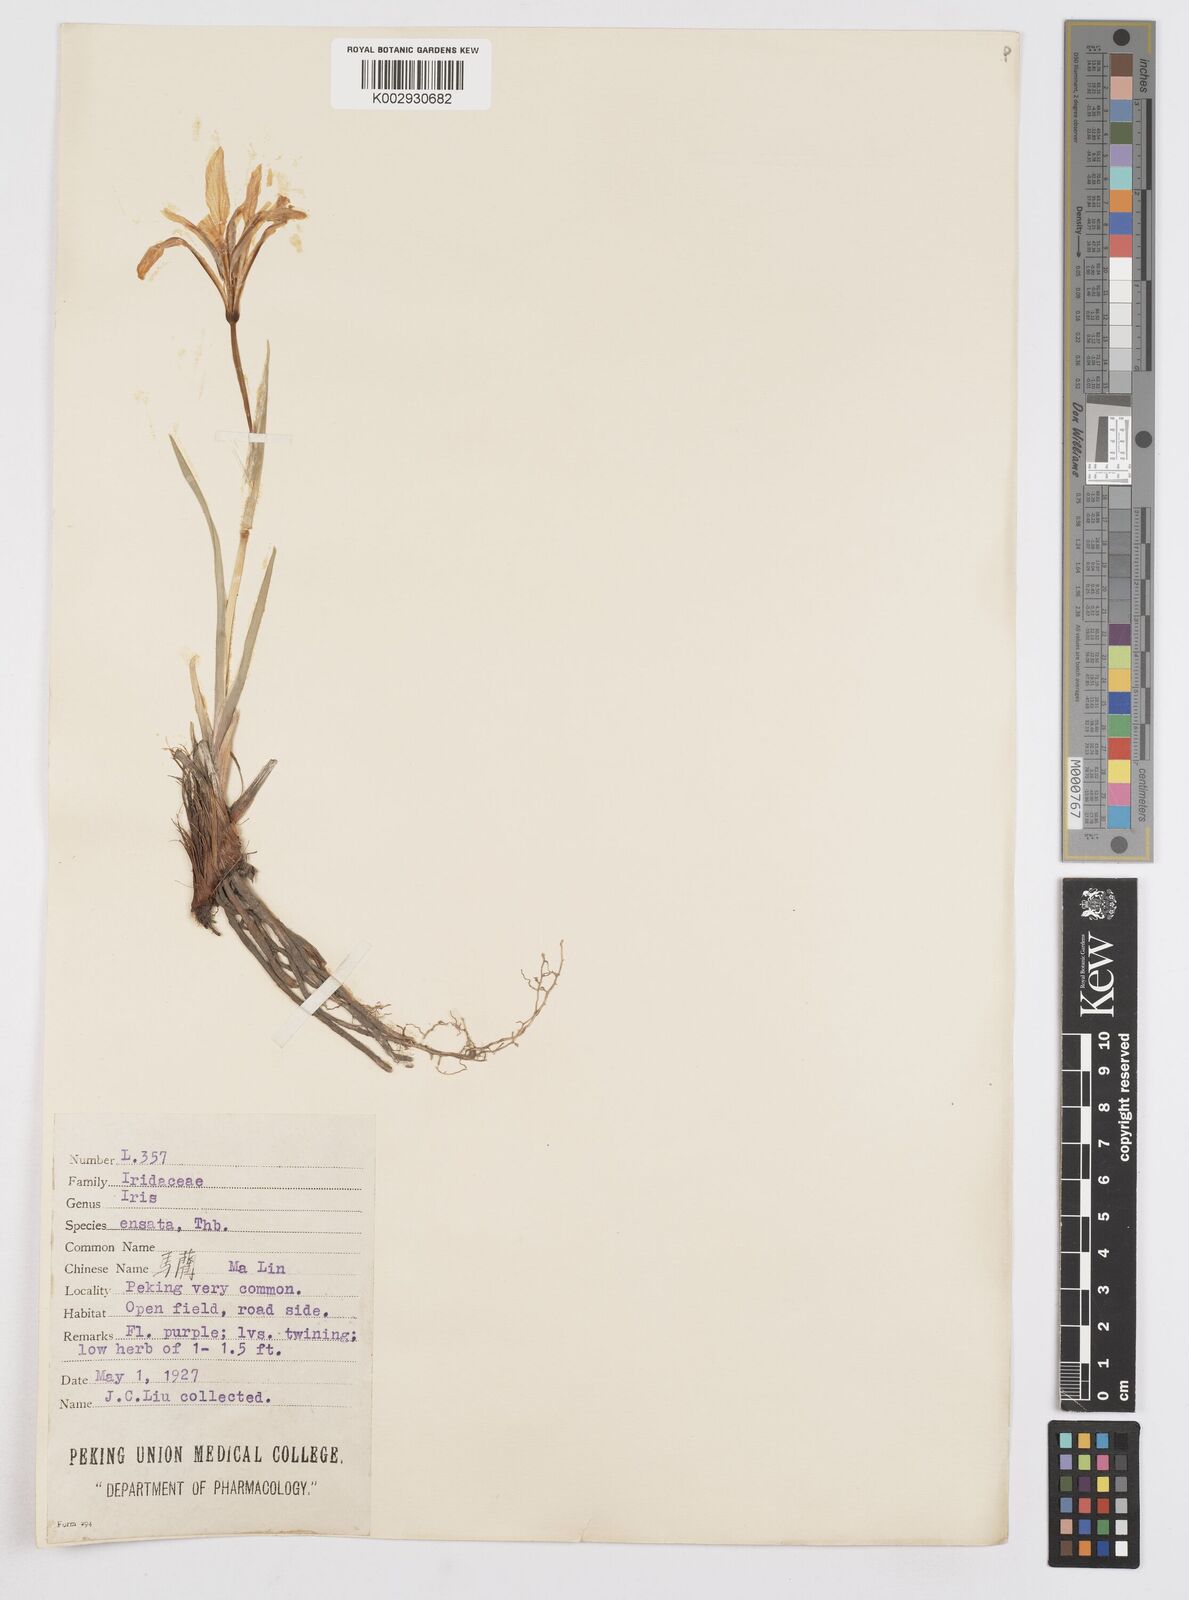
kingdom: Plantae
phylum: Tracheophyta
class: Liliopsida
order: Asparagales
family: Iridaceae
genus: Iris
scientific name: Iris ensata
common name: Beaked iris
